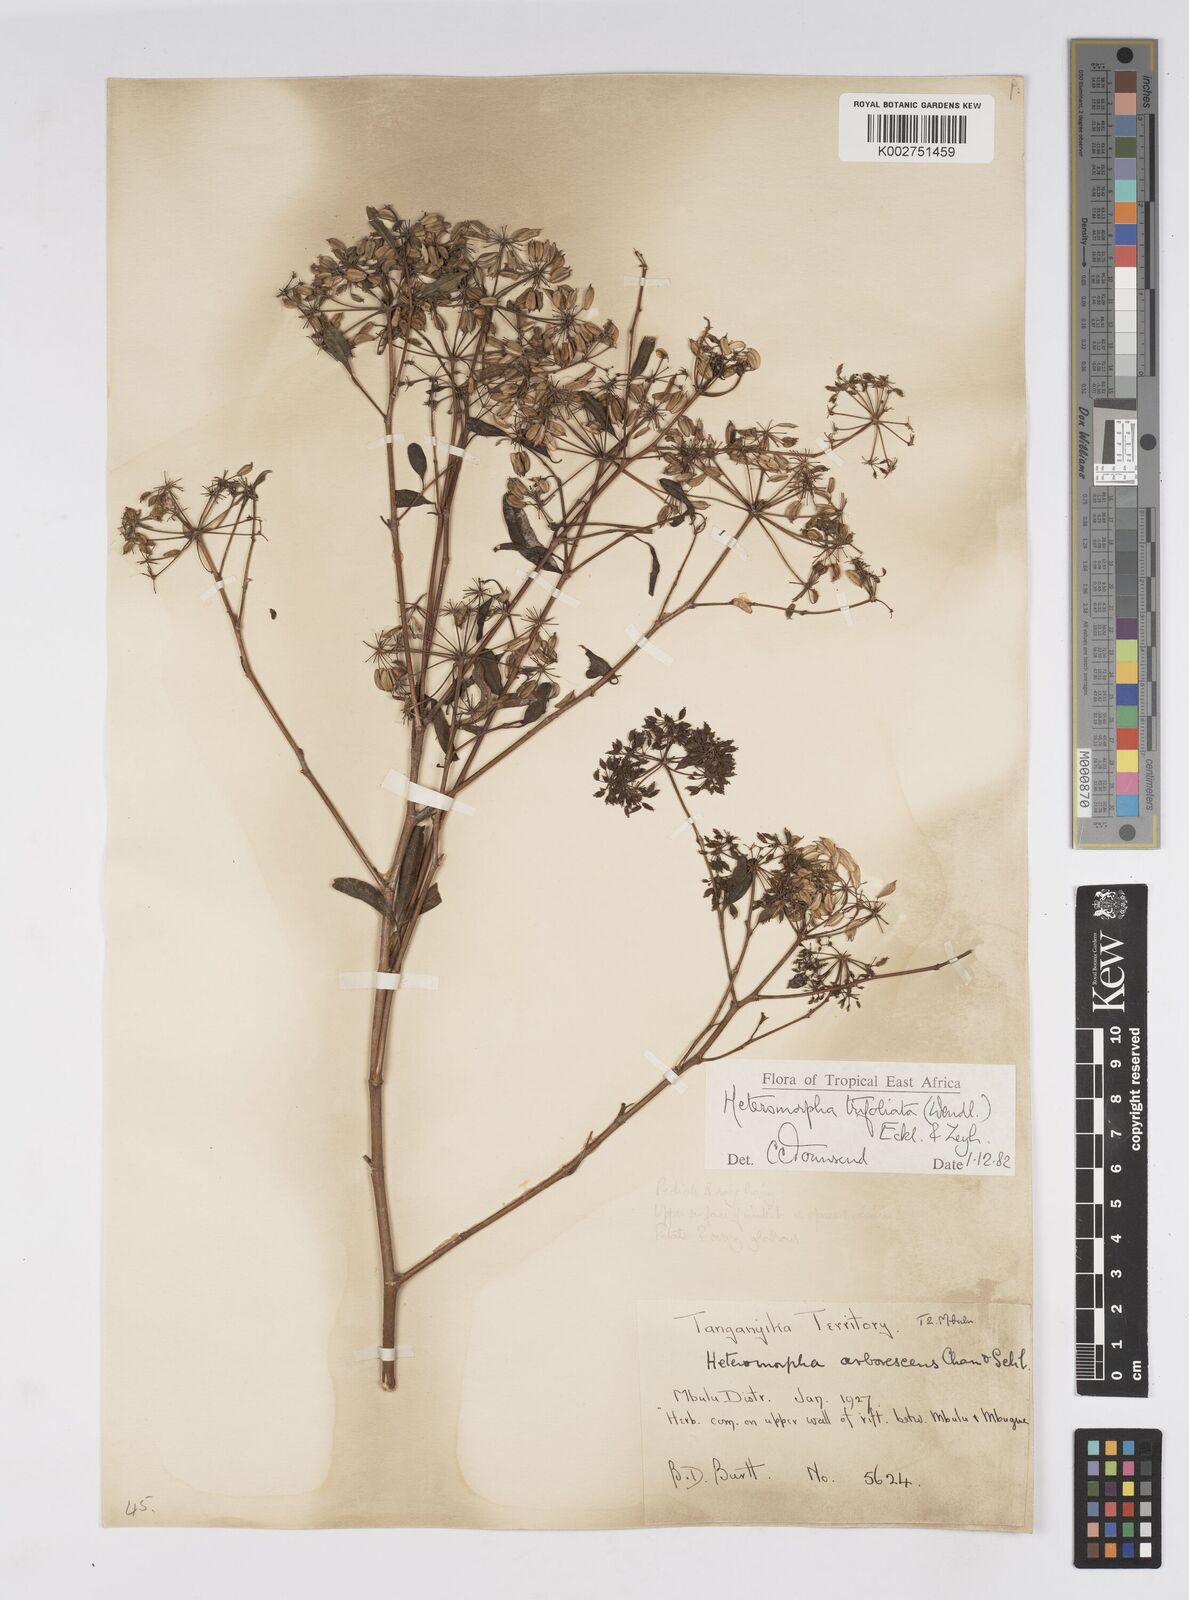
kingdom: Plantae
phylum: Tracheophyta
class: Magnoliopsida
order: Apiales
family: Apiaceae
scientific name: Apiaceae
